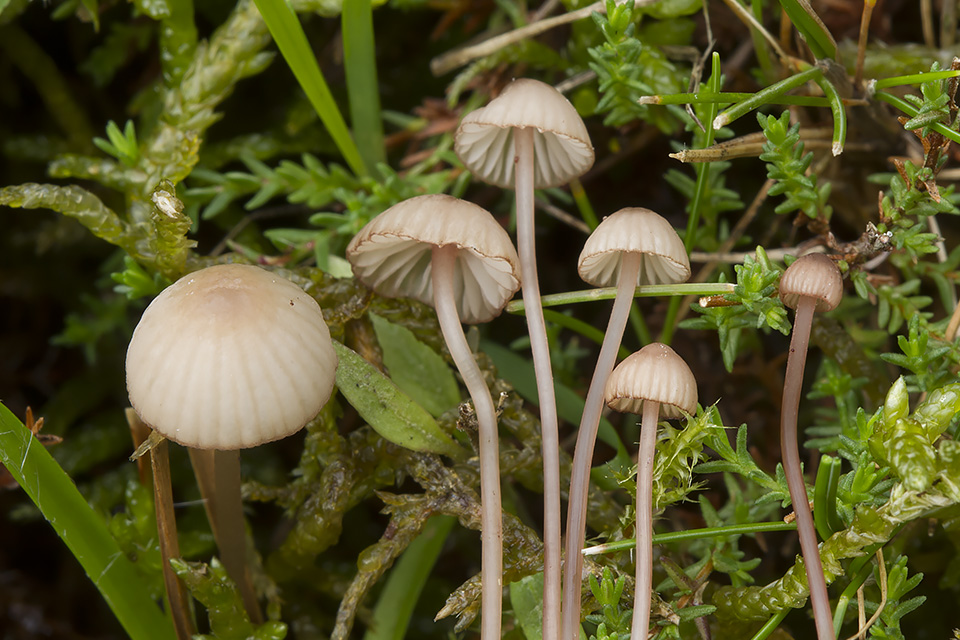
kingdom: Fungi
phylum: Basidiomycota
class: Agaricomycetes
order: Agaricales
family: Mycenaceae
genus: Mycena
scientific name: Mycena sanguinolenta
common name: rødmælket huesvamp
